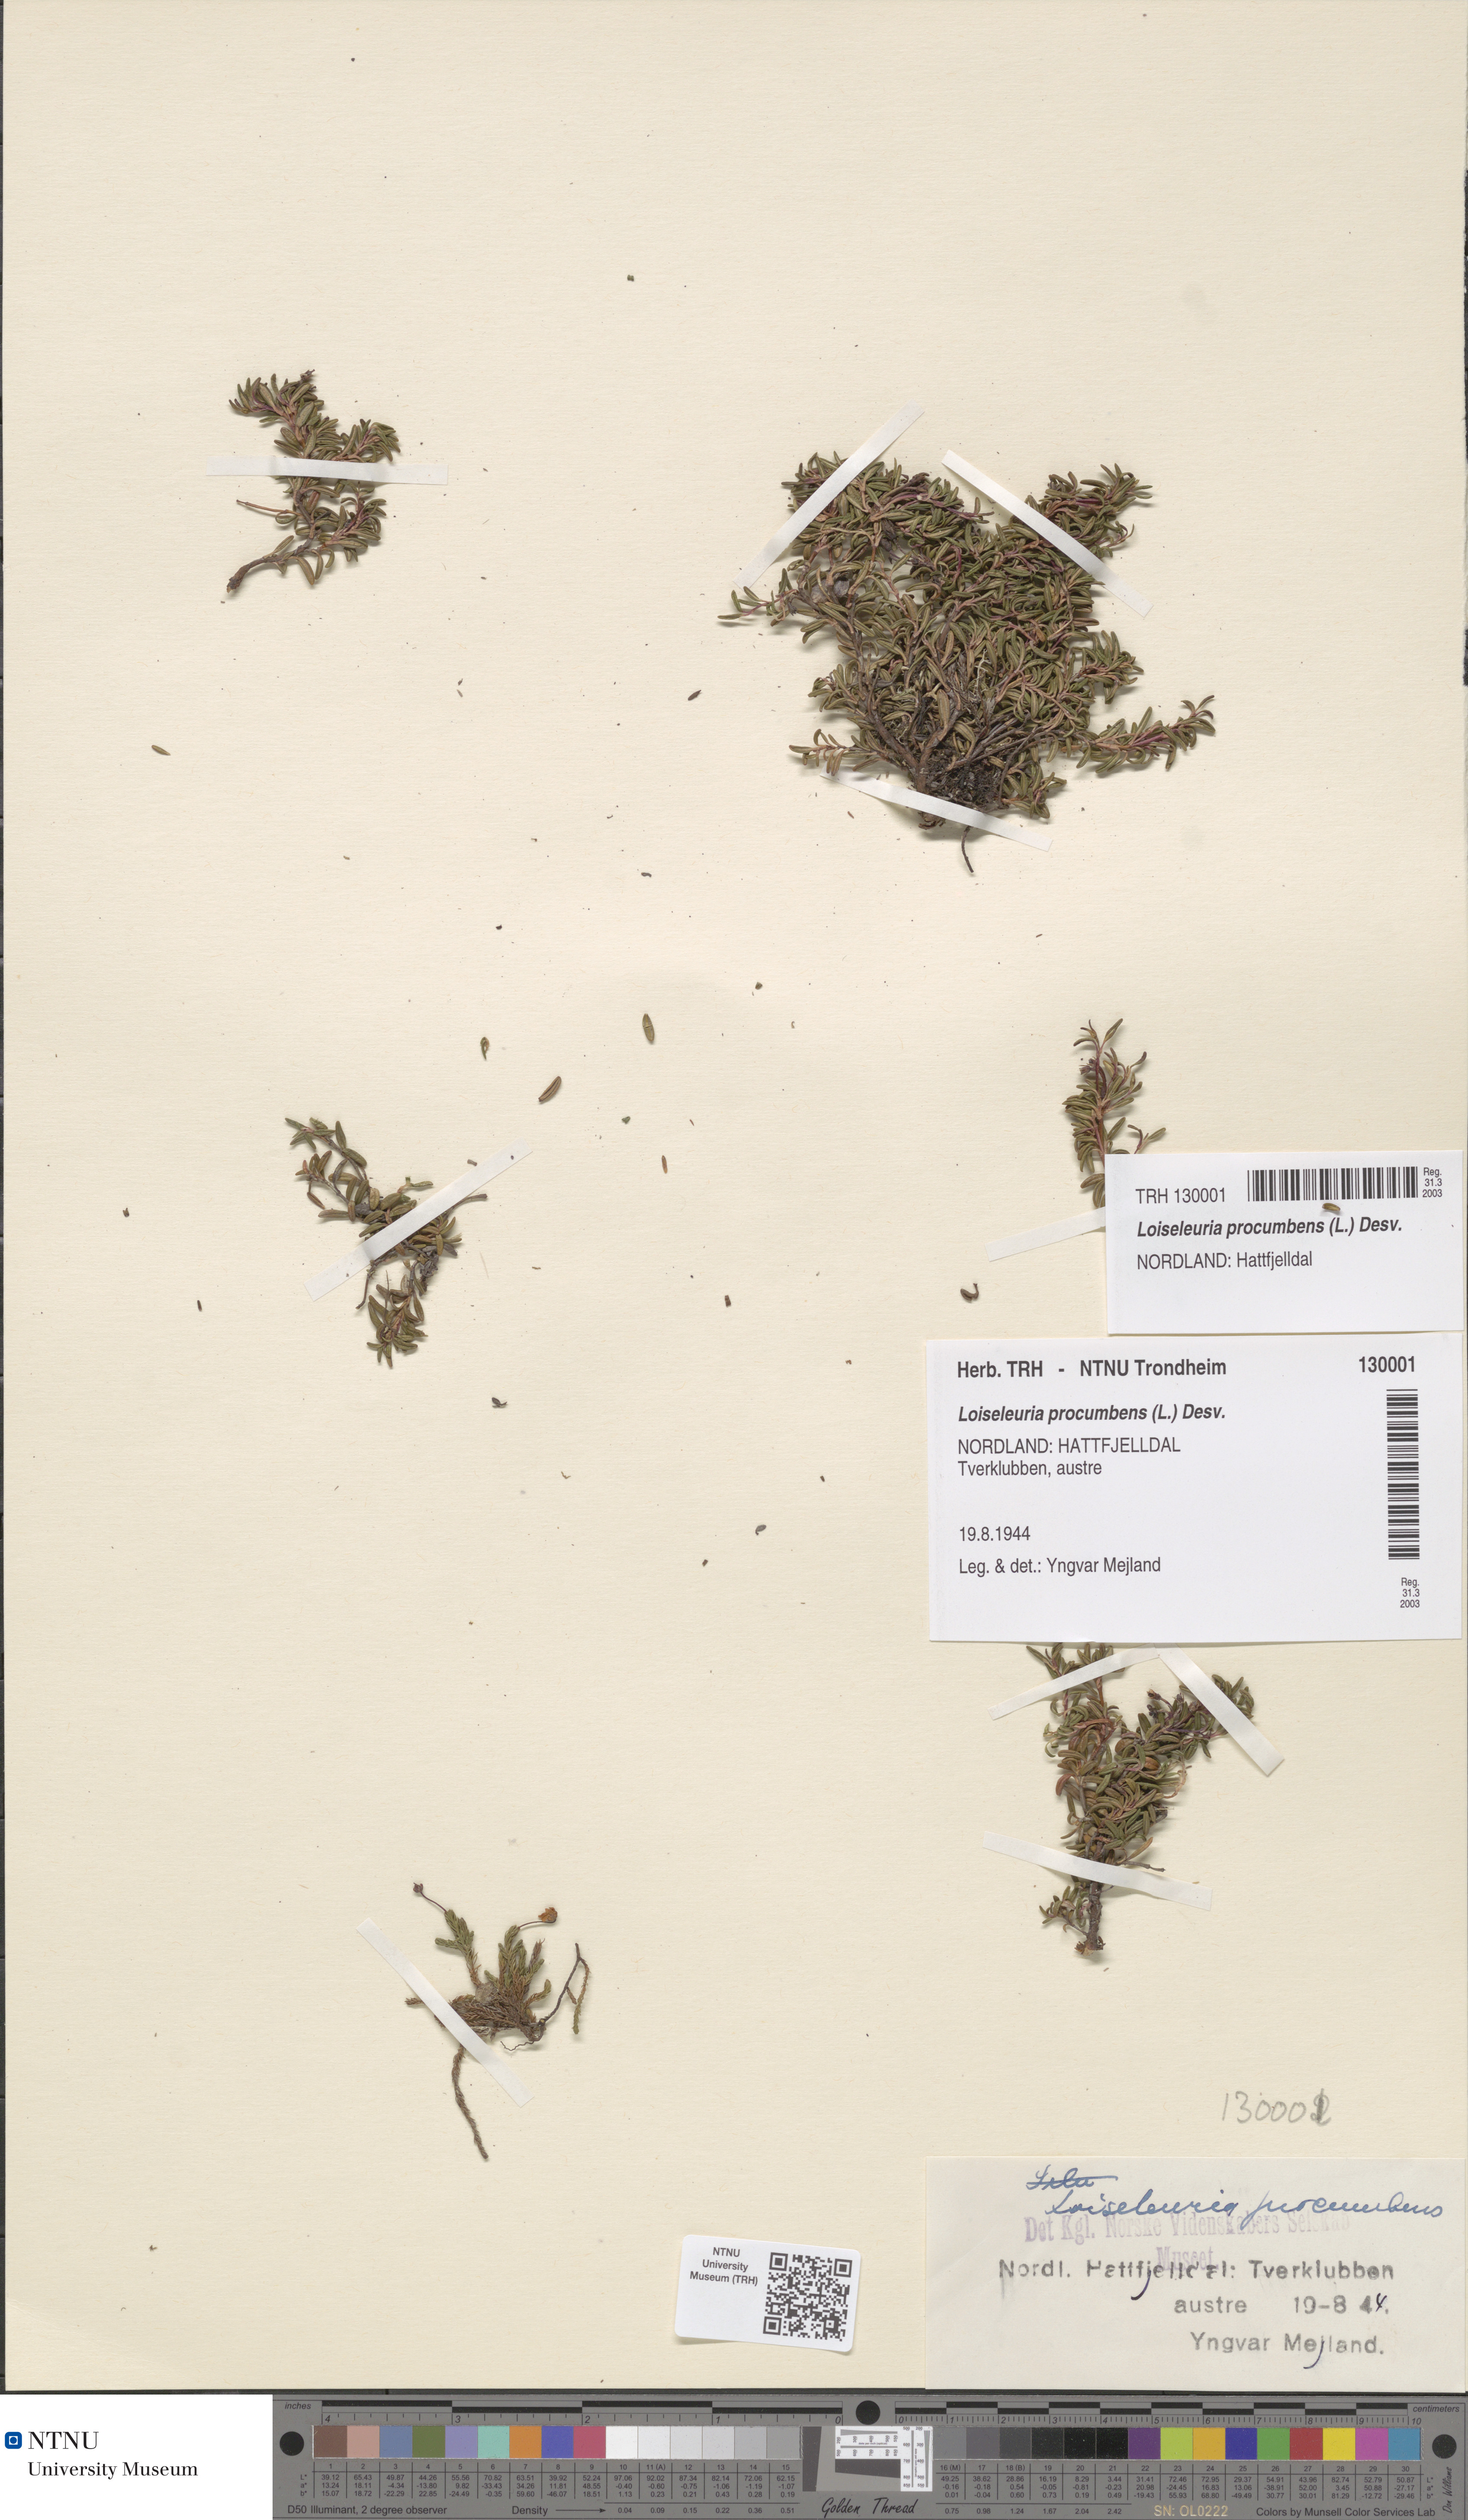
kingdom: Plantae
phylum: Tracheophyta
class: Magnoliopsida
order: Ericales
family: Ericaceae
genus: Kalmia
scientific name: Kalmia procumbens
